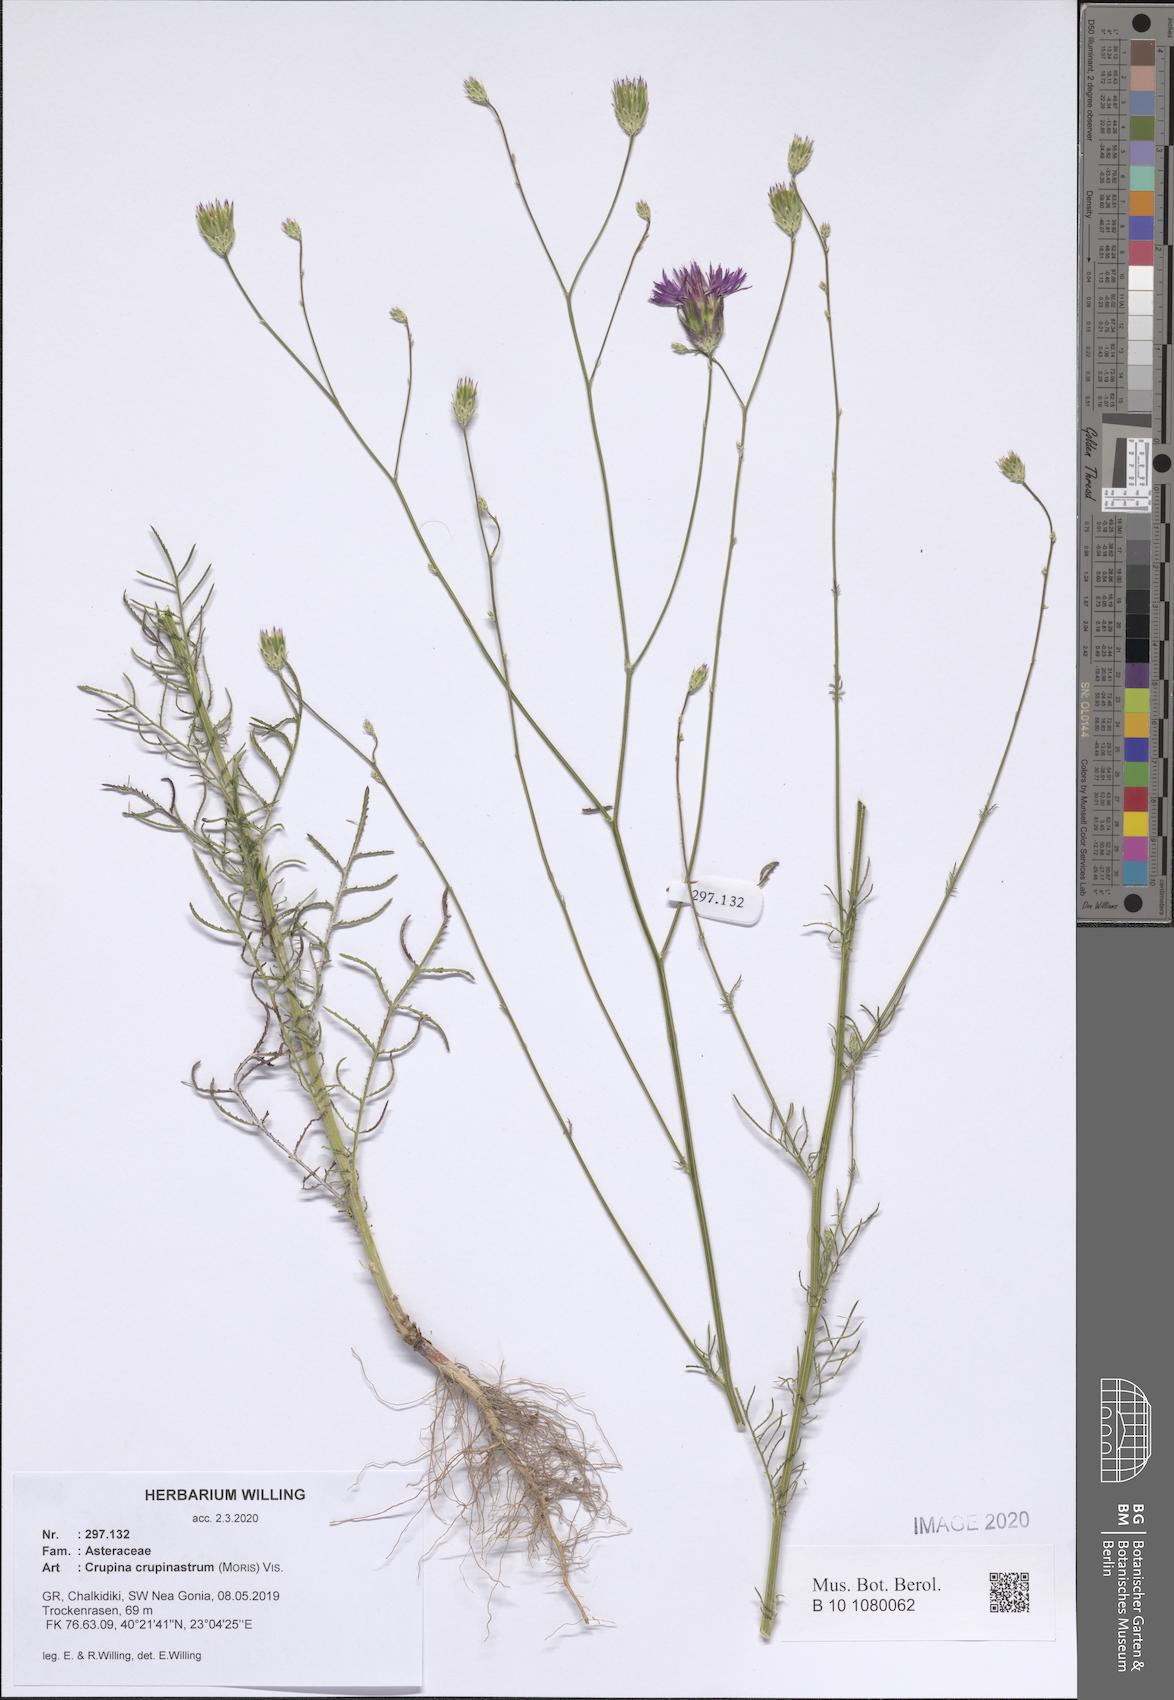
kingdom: Plantae
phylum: Tracheophyta
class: Magnoliopsida
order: Asterales
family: Asteraceae
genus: Crupina
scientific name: Crupina crupinastrum
